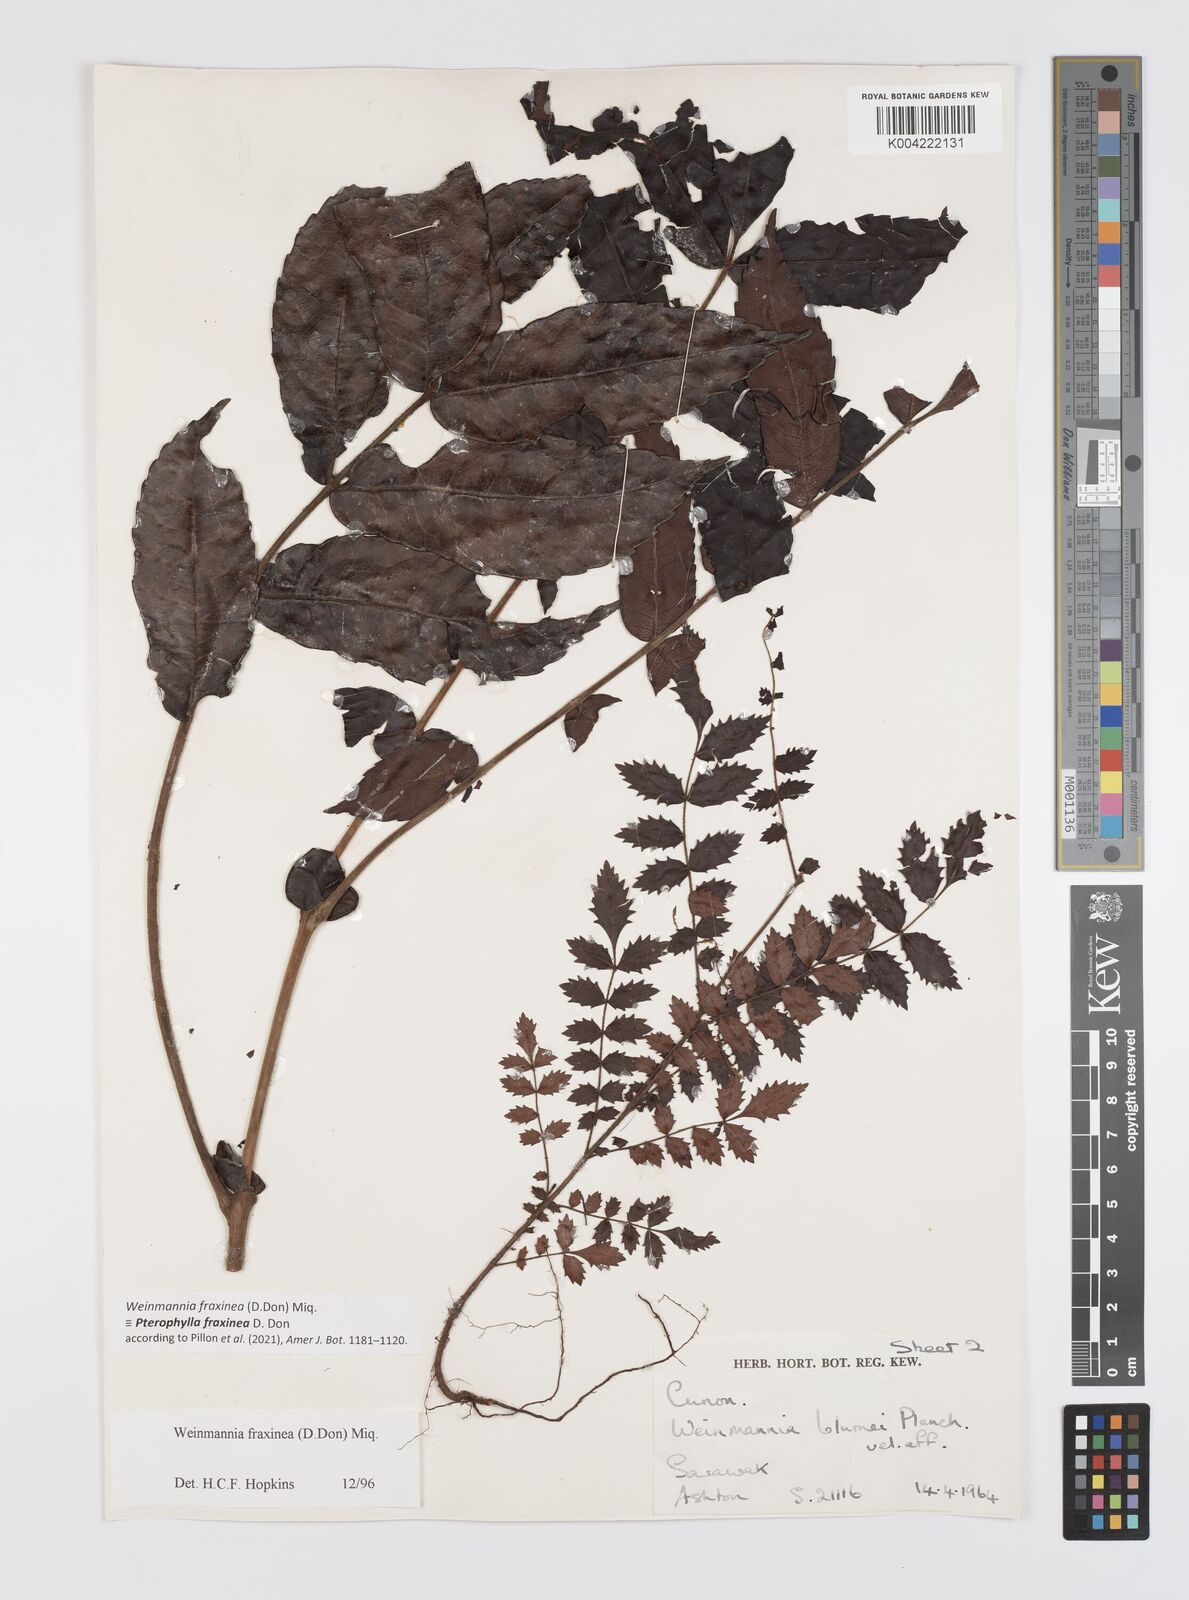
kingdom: Plantae
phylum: Tracheophyta
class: Magnoliopsida
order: Oxalidales
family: Cunoniaceae
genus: Pterophylla
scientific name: Pterophylla fraxinea
